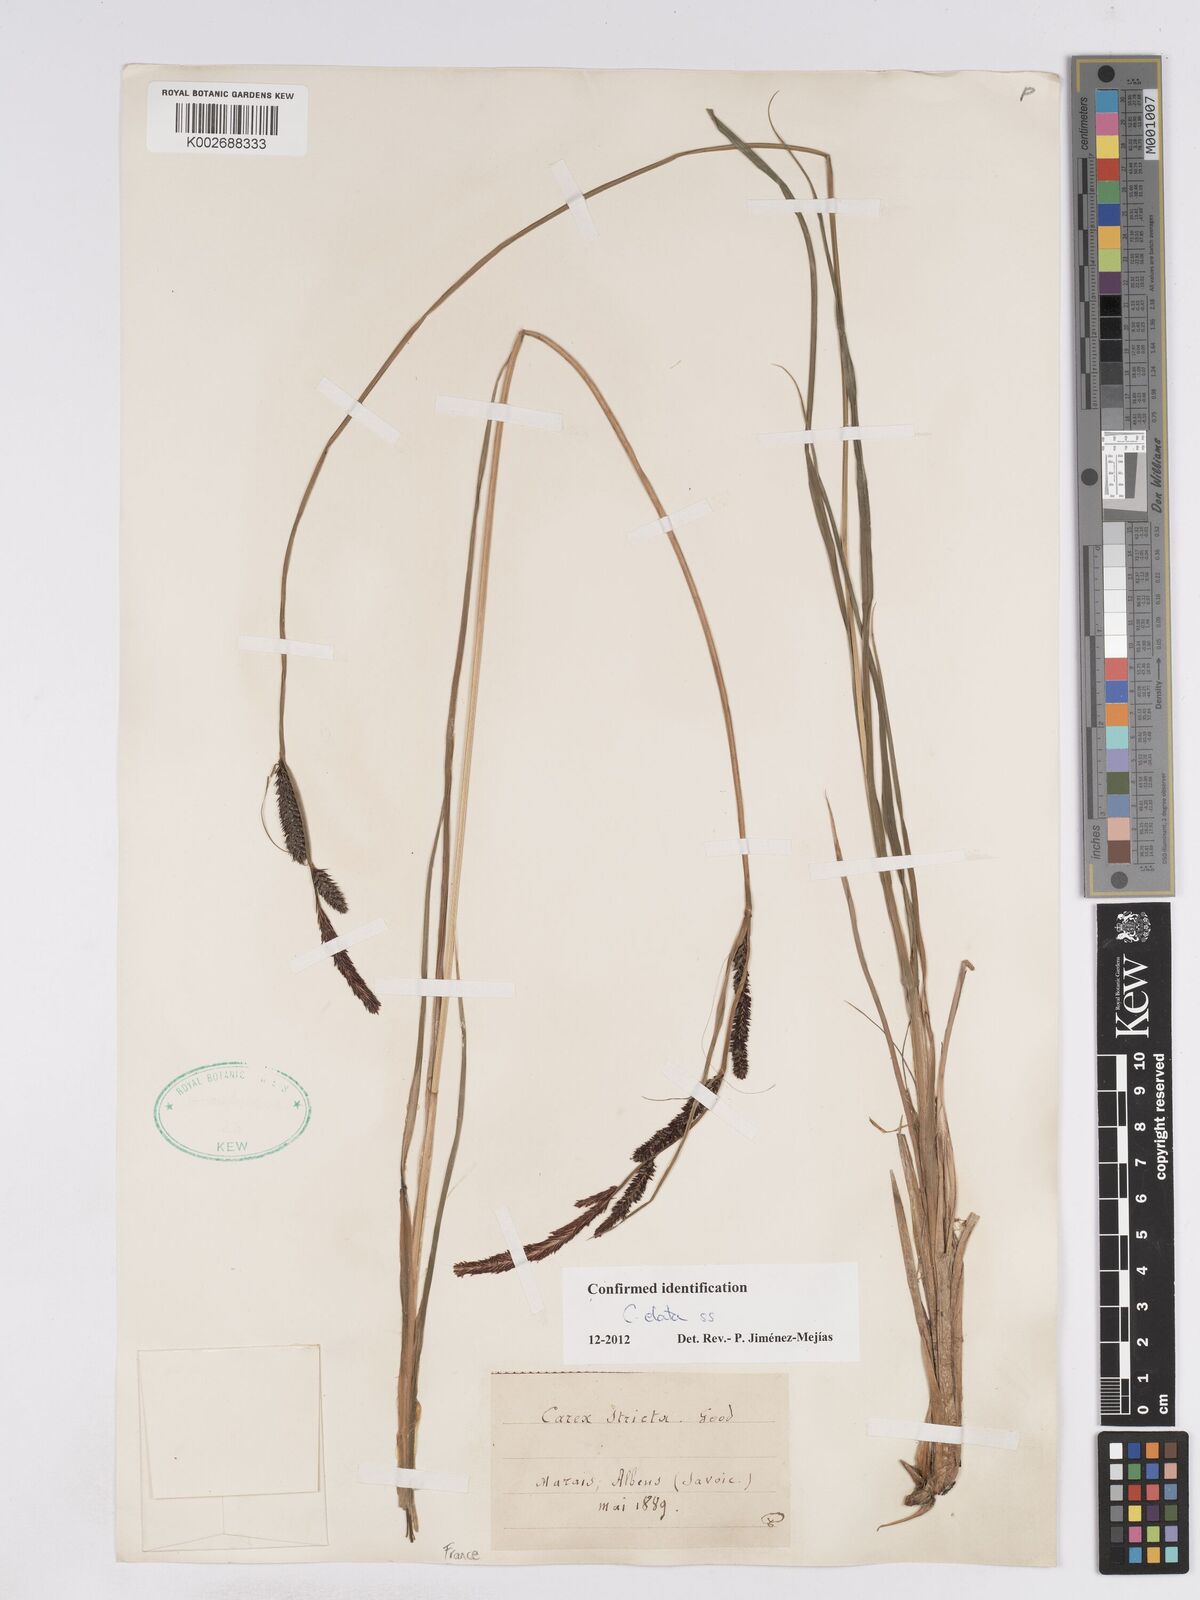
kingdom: Plantae
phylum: Tracheophyta
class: Liliopsida
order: Poales
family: Cyperaceae
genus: Carex
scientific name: Carex elata
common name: Tufted sedge
